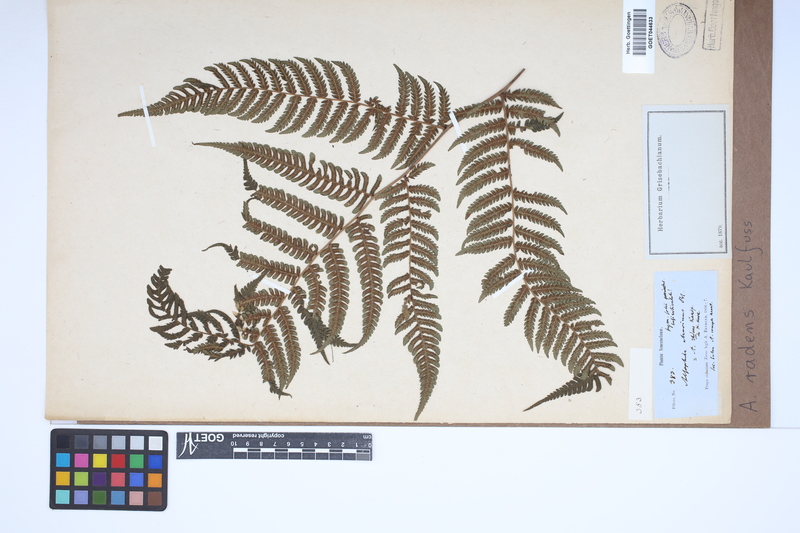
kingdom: Plantae
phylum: Tracheophyta
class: Polypodiopsida
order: Cyatheales
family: Cyatheaceae
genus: Cyathea
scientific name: Cyathea atrovirens
